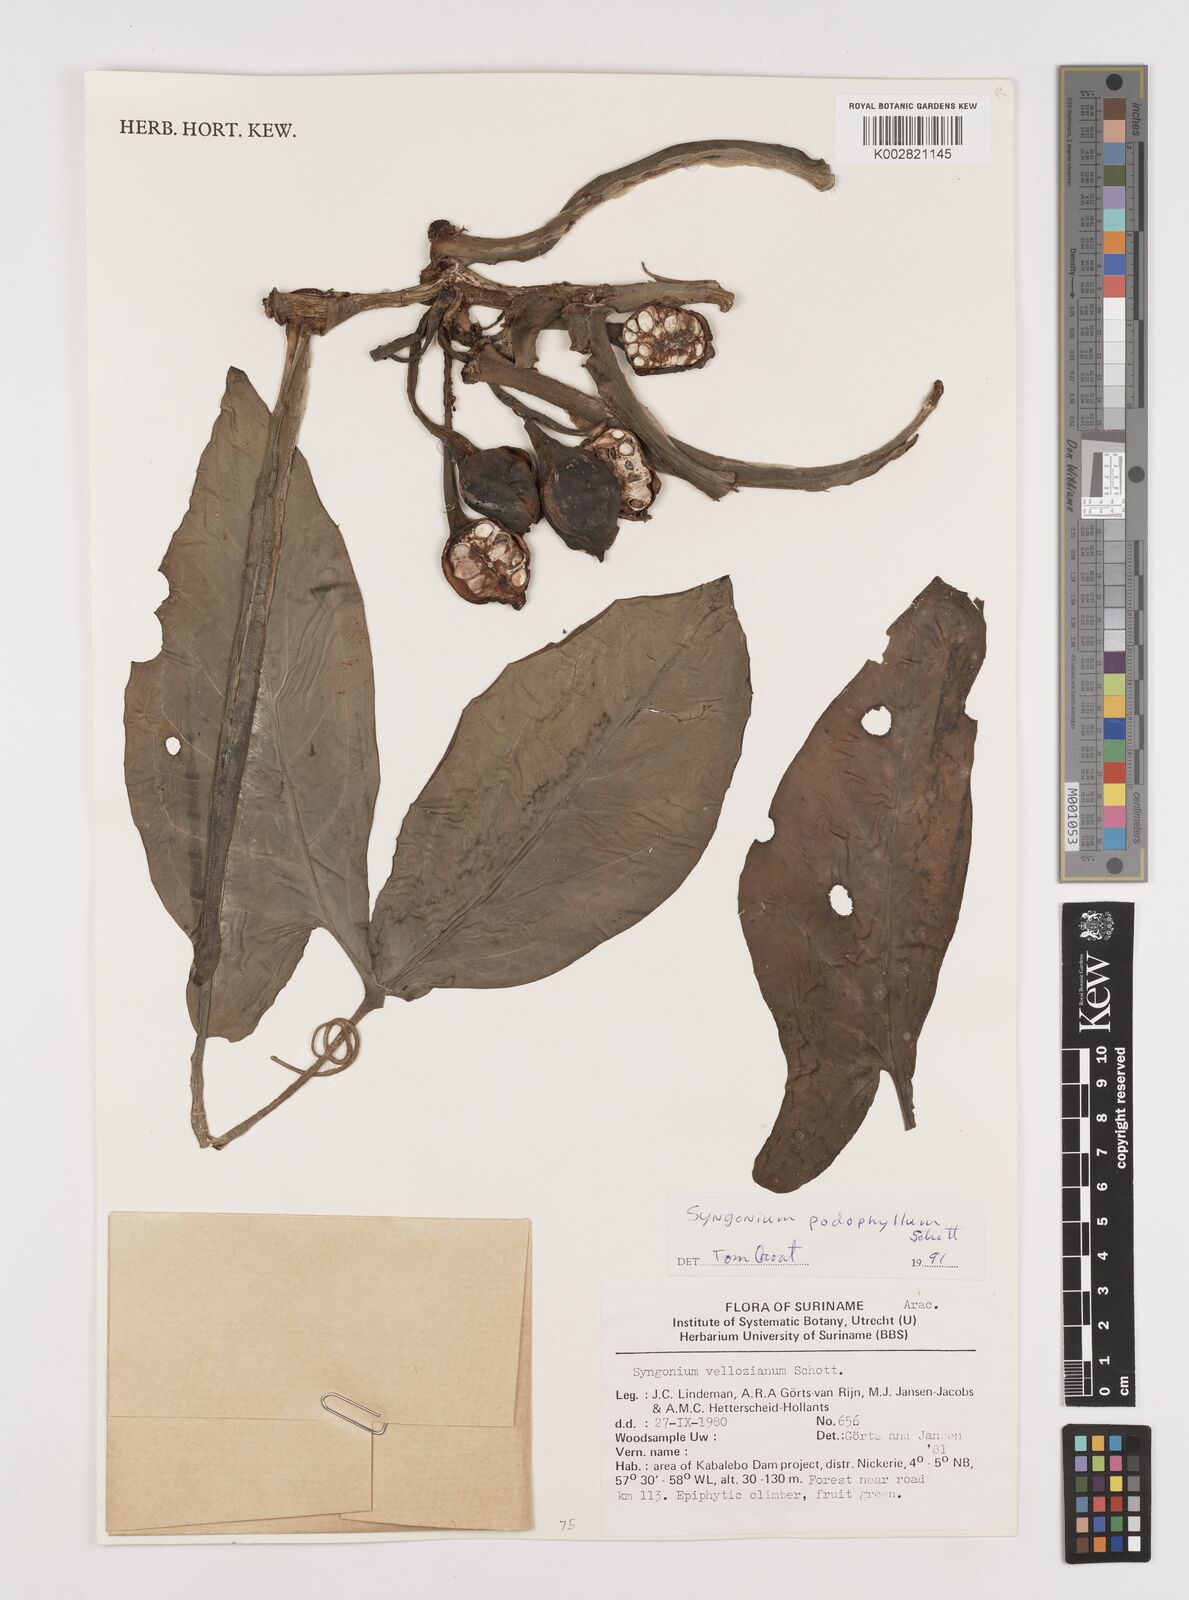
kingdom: Plantae
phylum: Tracheophyta
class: Liliopsida
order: Alismatales
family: Araceae
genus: Syngonium
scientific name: Syngonium podophyllum
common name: American evergreen
